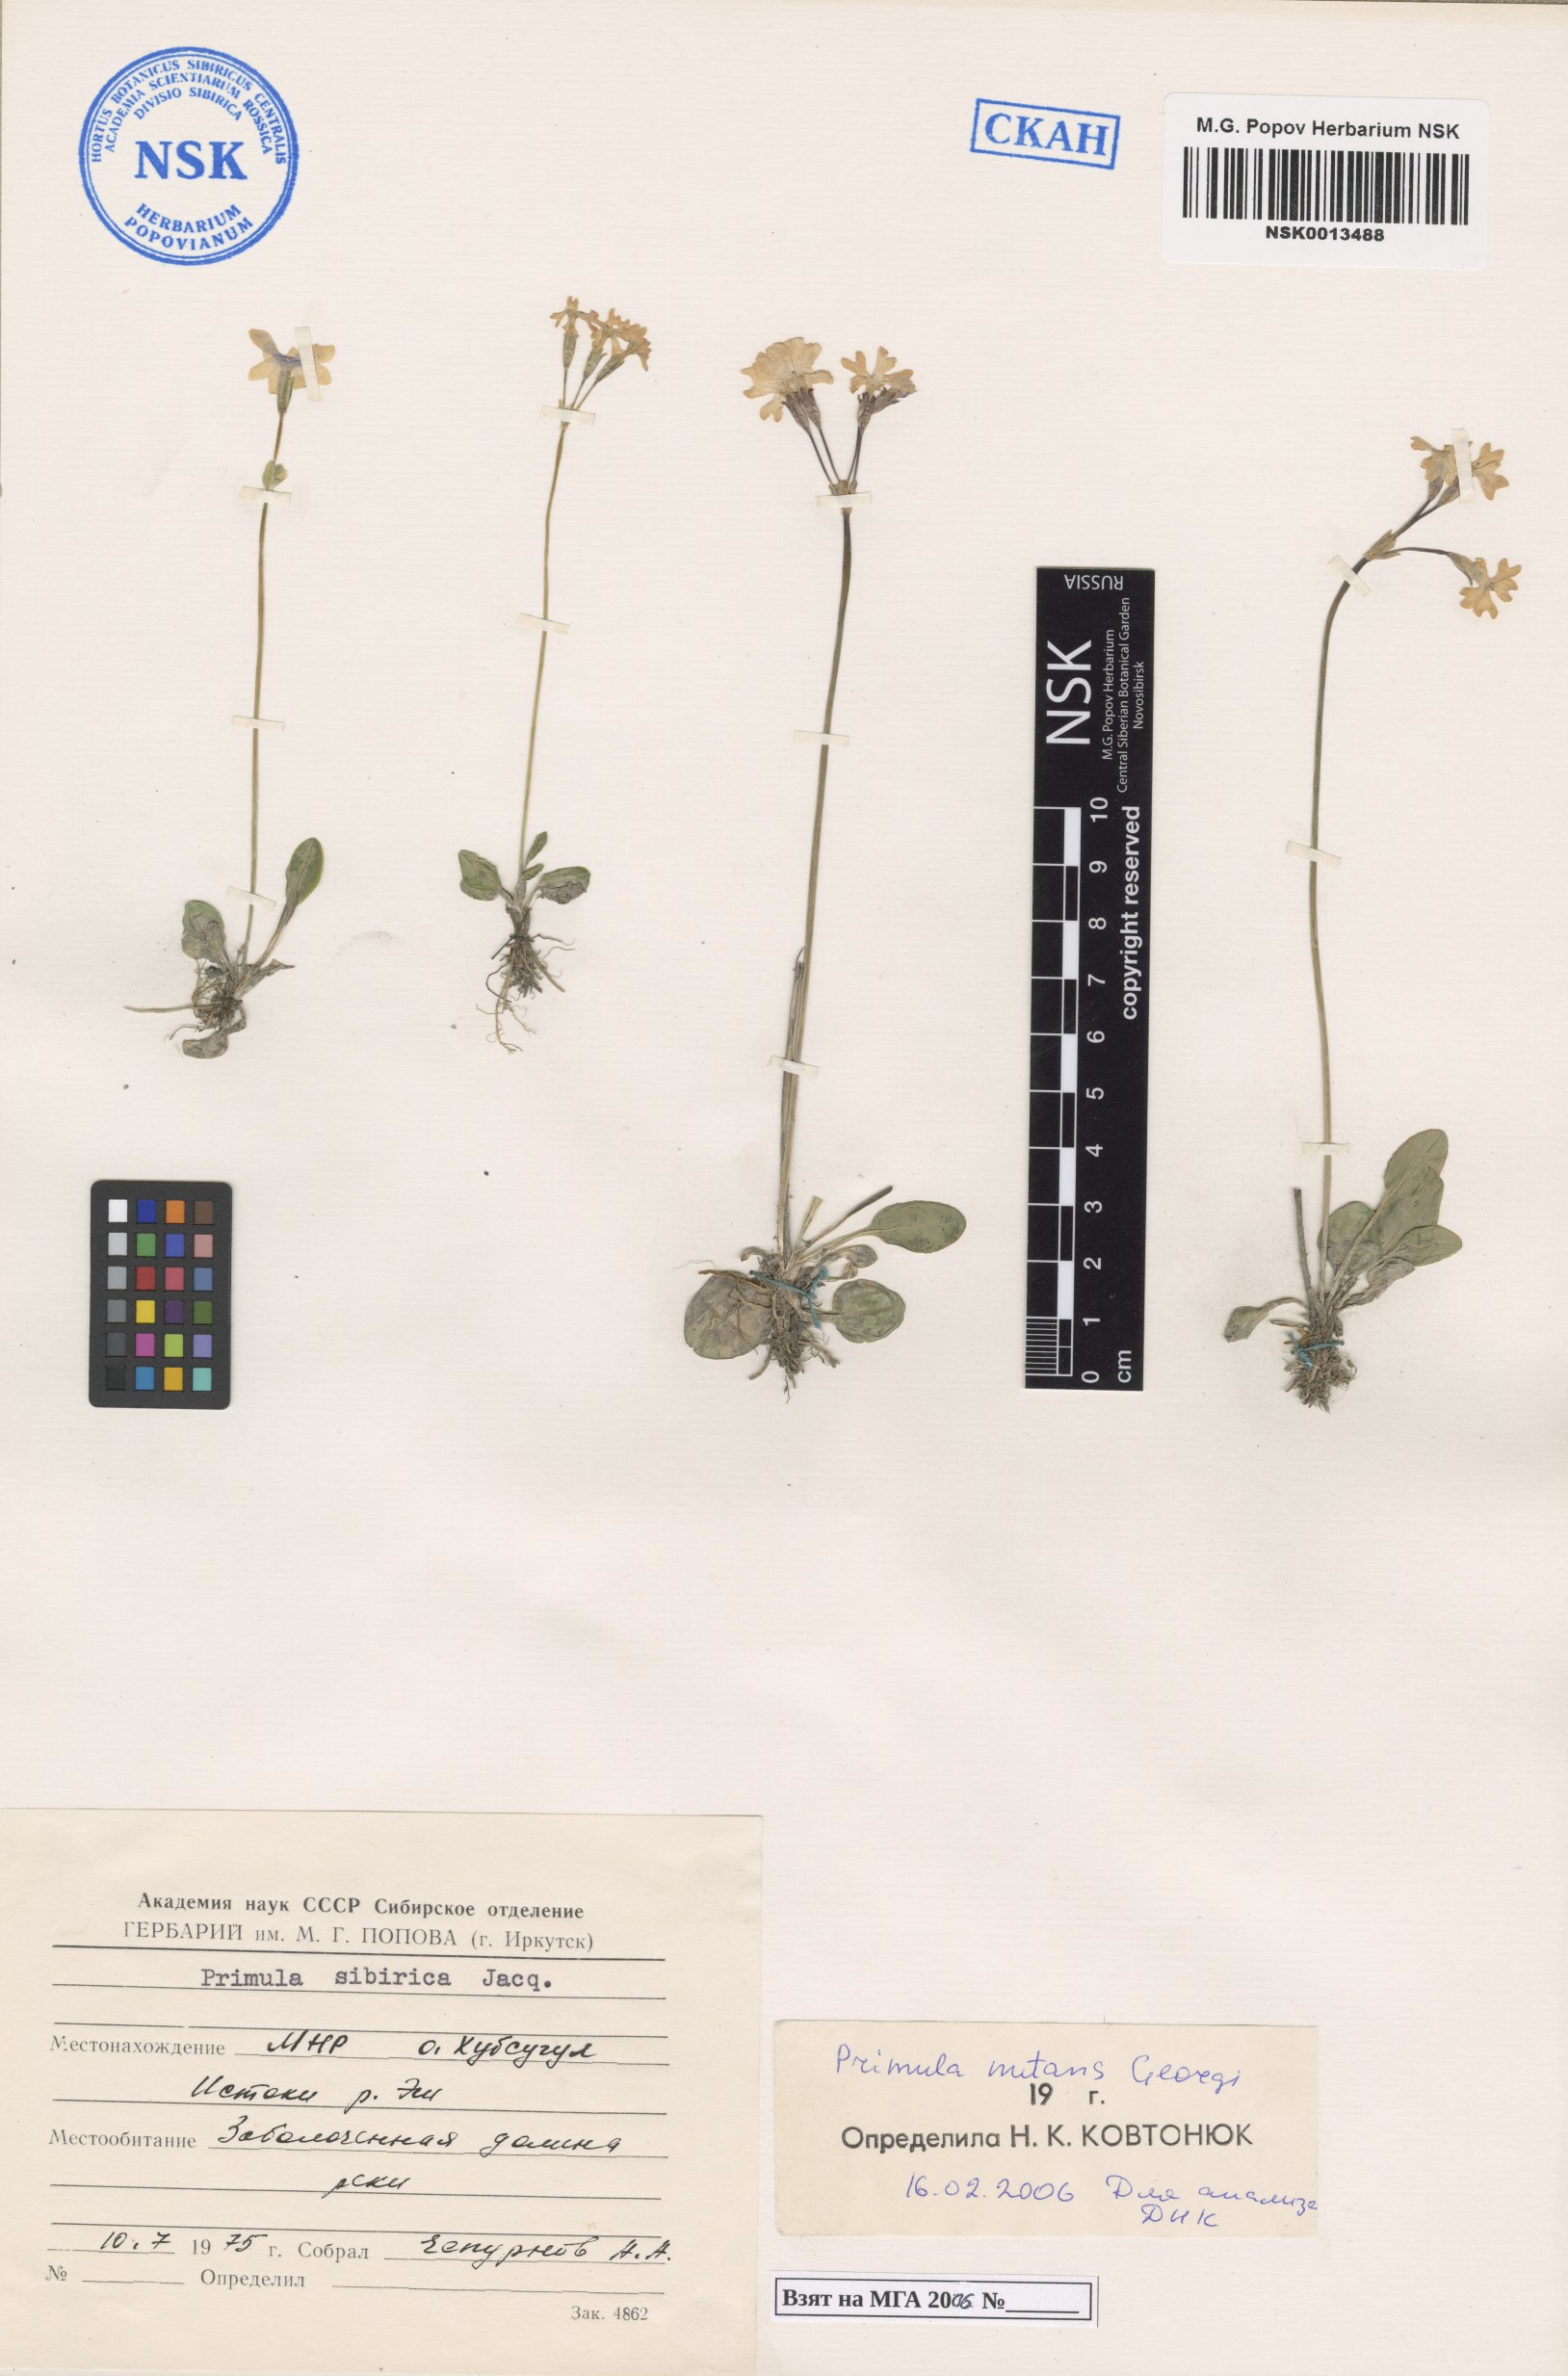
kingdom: Plantae
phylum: Tracheophyta
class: Magnoliopsida
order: Ericales
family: Primulaceae
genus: Primula
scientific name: Primula nutans
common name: Siberian primrose
